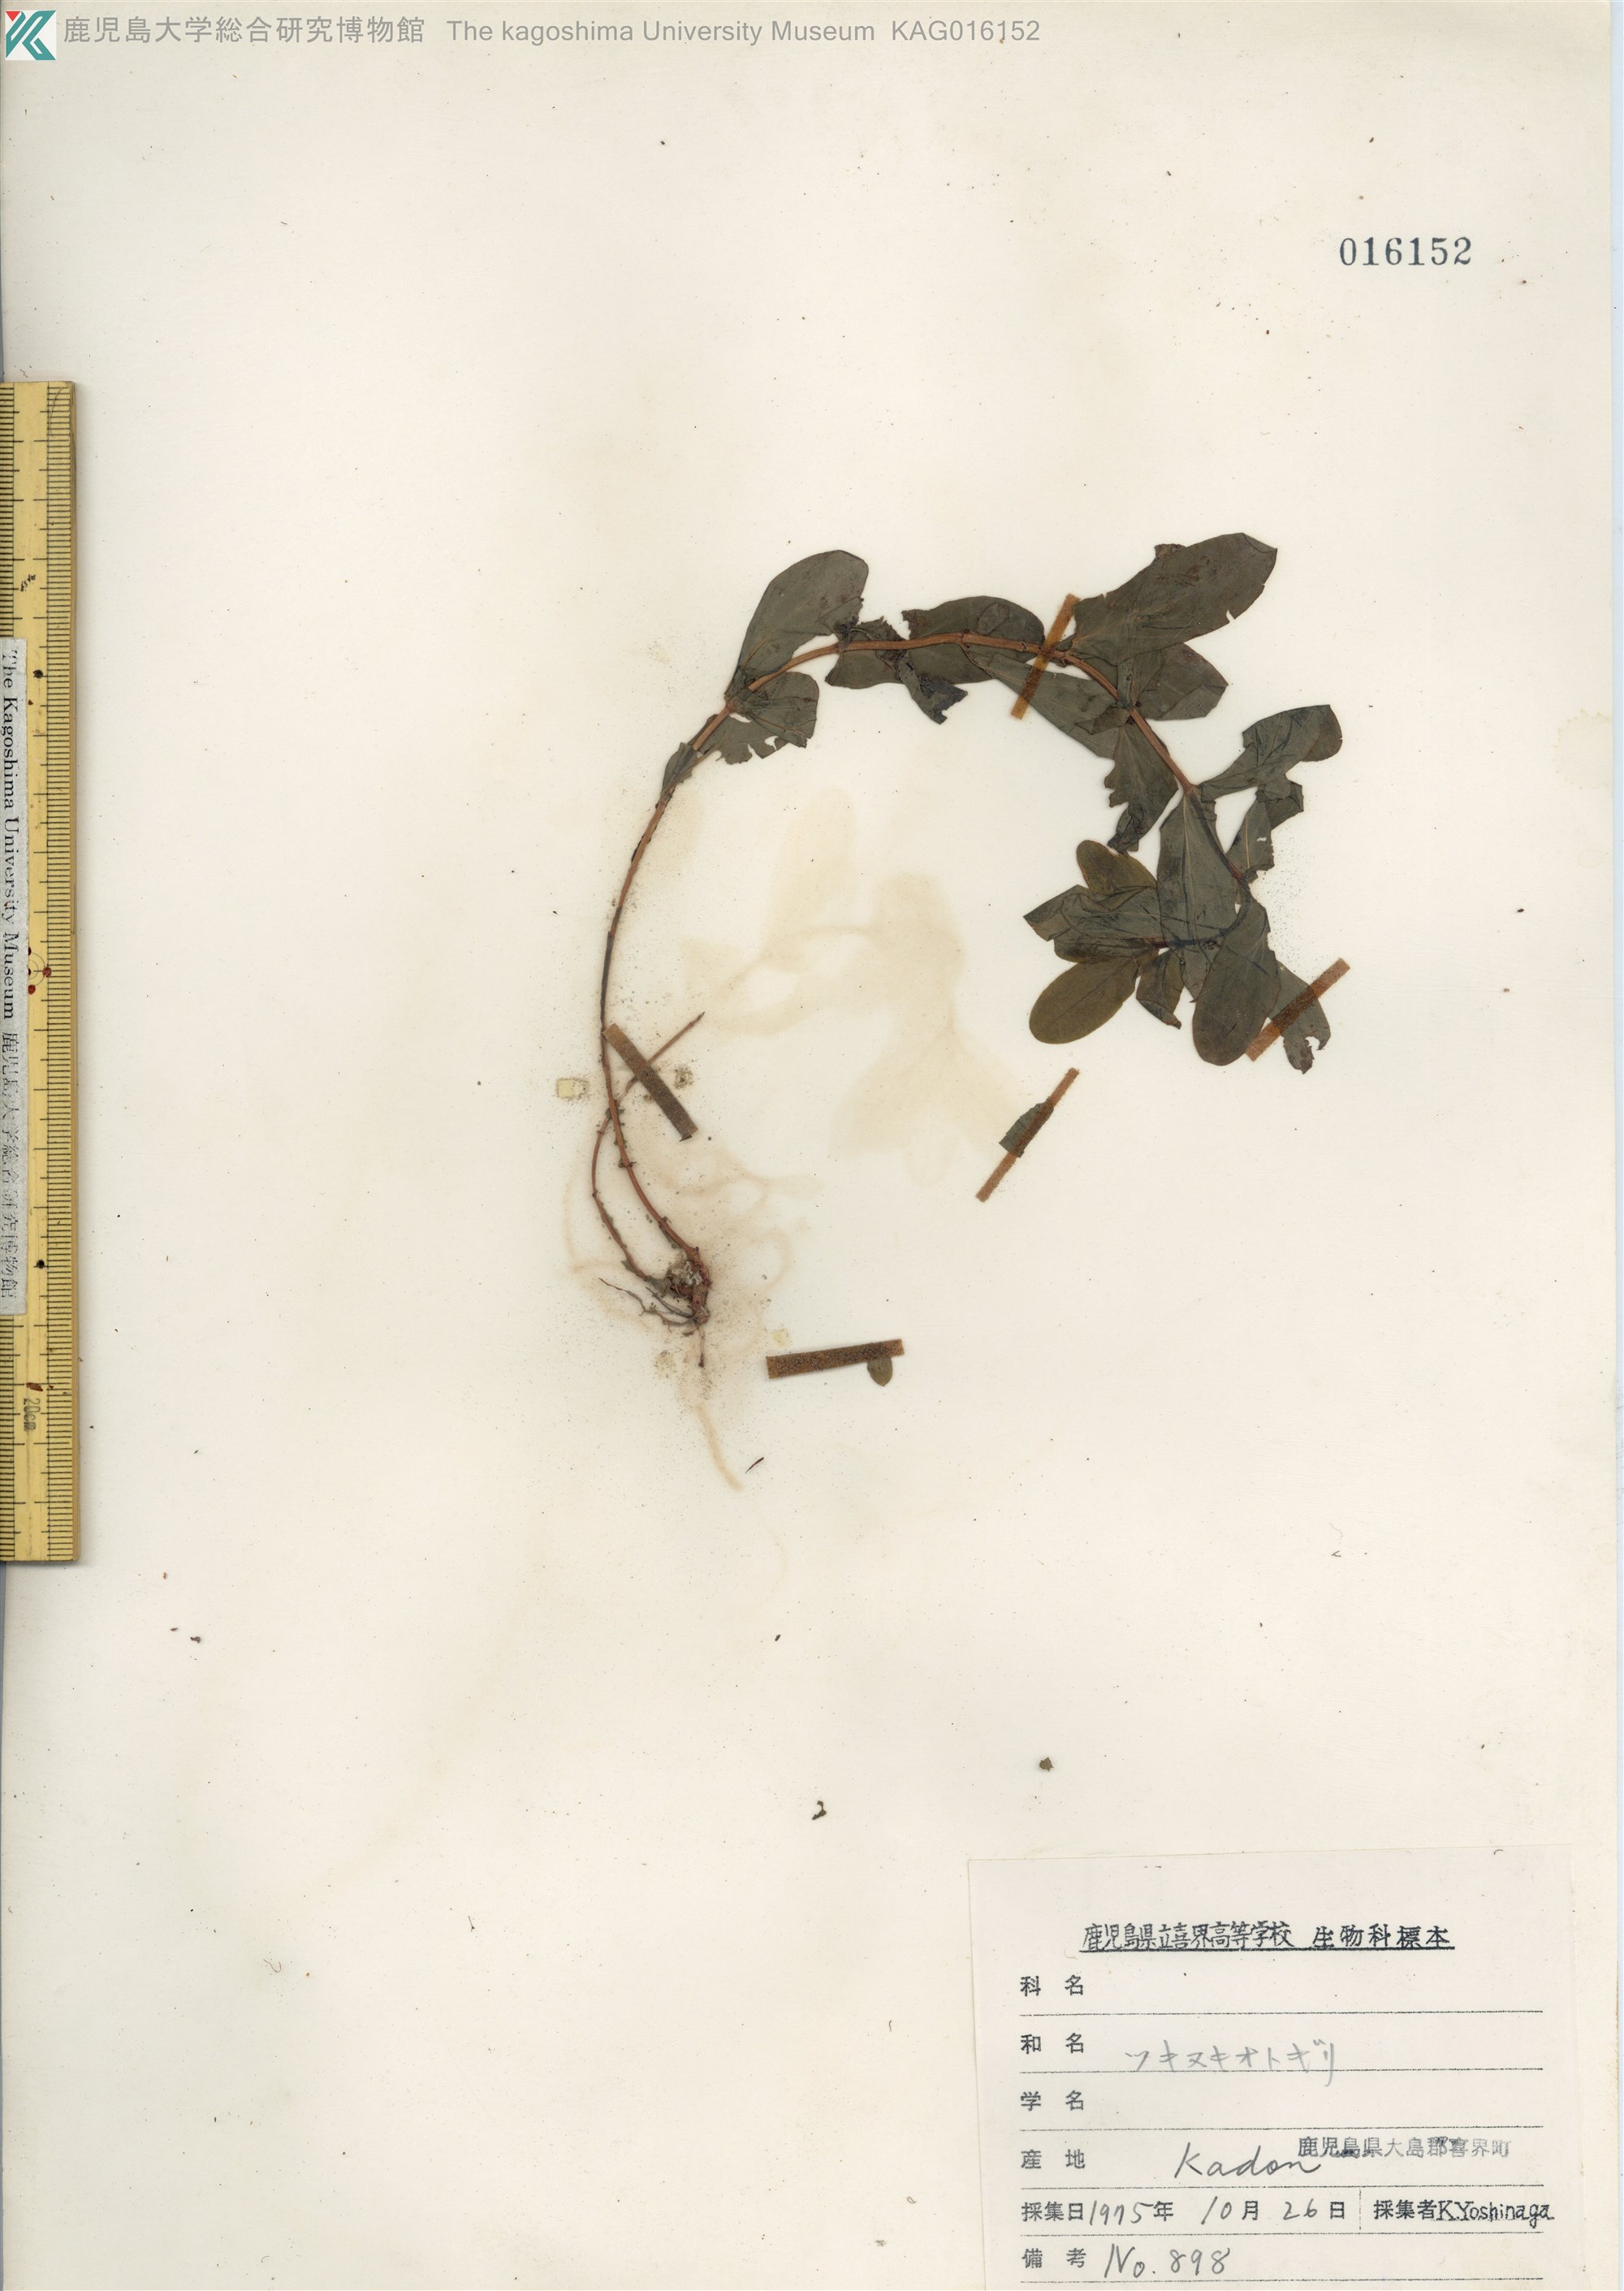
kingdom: Plantae
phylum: Tracheophyta
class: Magnoliopsida
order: Malpighiales
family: Hypericaceae
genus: Hypericum
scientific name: Hypericum sampsonii
